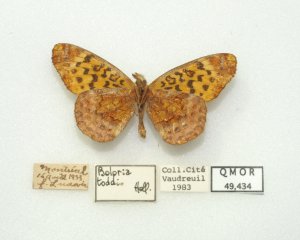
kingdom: Animalia
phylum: Arthropoda
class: Insecta
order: Lepidoptera
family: Nymphalidae
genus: Clossiana
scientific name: Clossiana toddi
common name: Meadow Fritillary
